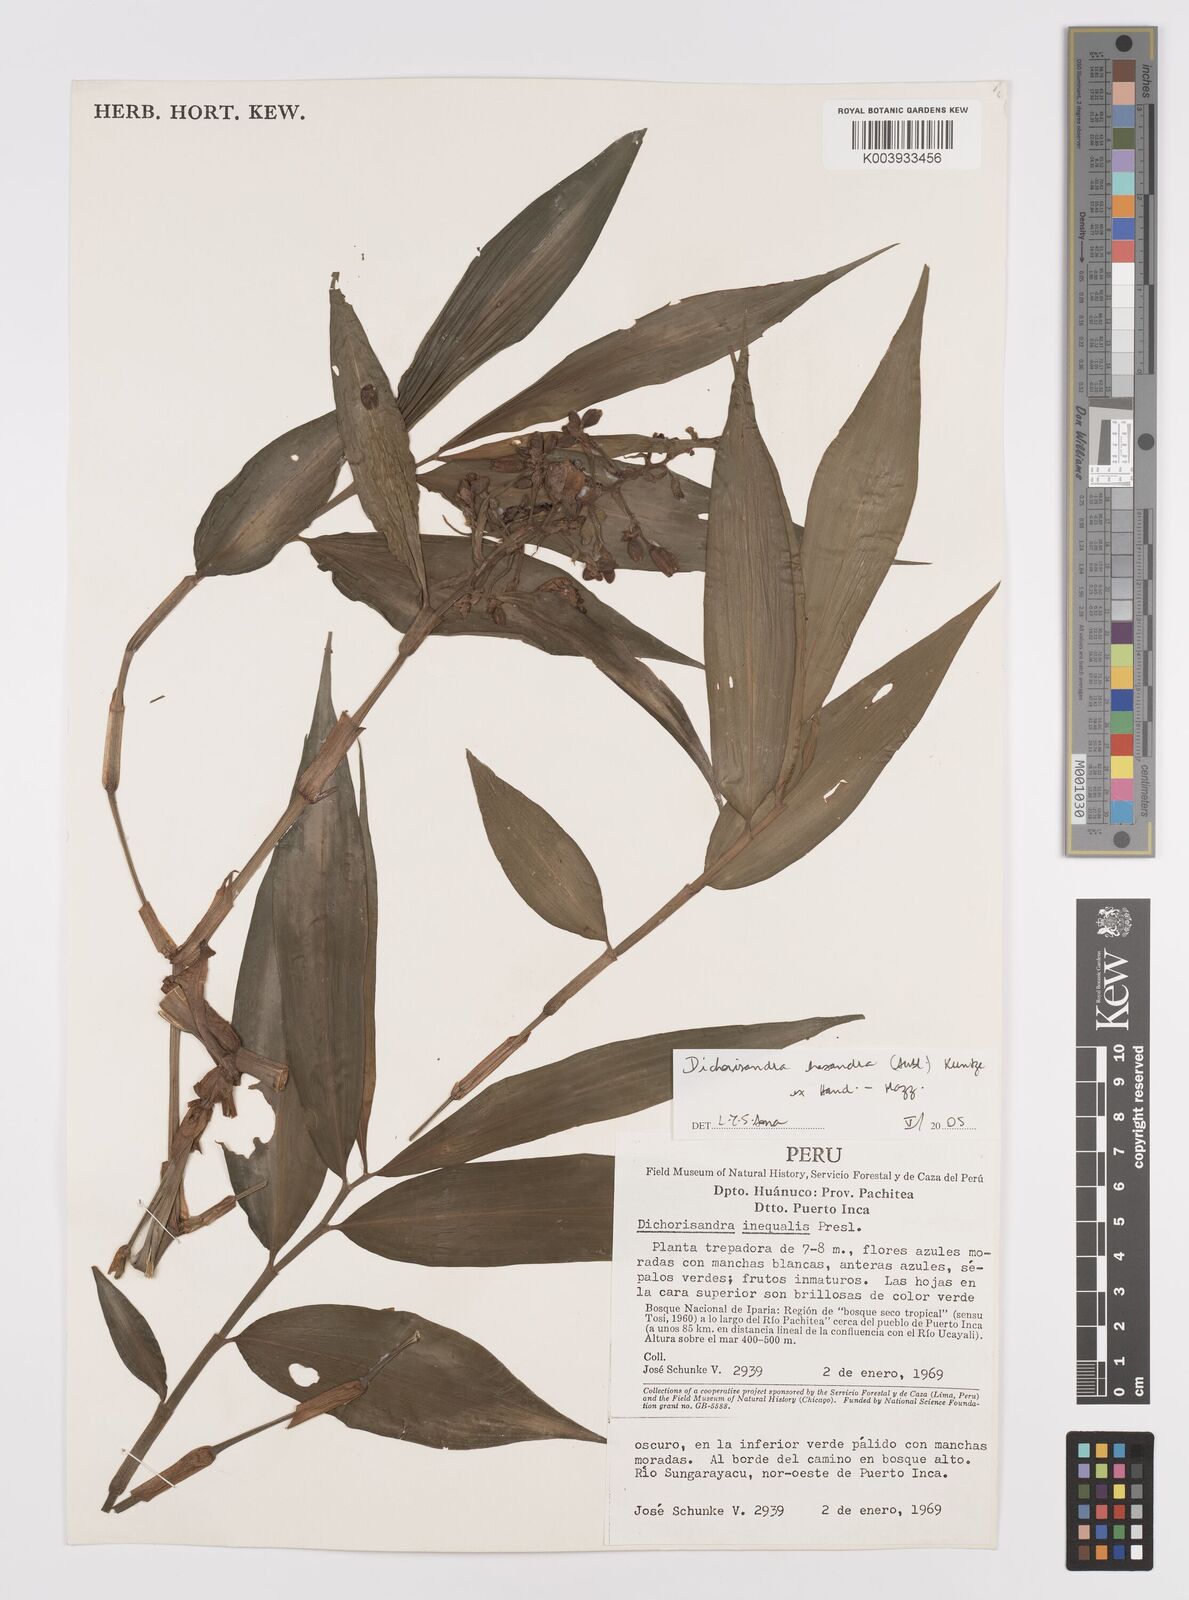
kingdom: Plantae
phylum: Tracheophyta
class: Liliopsida
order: Commelinales
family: Commelinaceae
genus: Dichorisandra
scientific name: Dichorisandra hexandra
